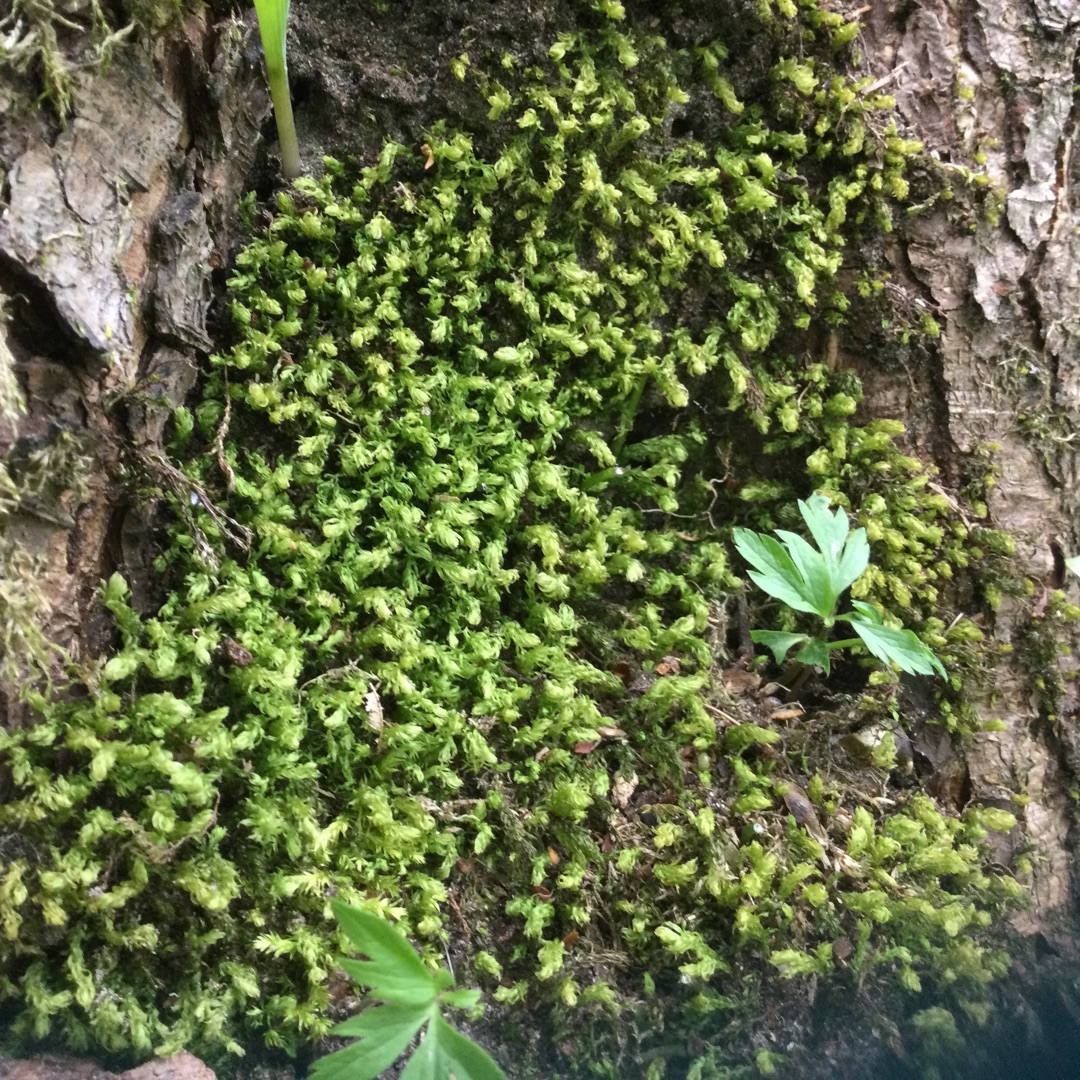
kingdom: Plantae
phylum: Bryophyta
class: Bryopsida
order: Bryales
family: Mniaceae
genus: Mnium
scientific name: Mnium hornum
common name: Brunfiltet stjernemos
